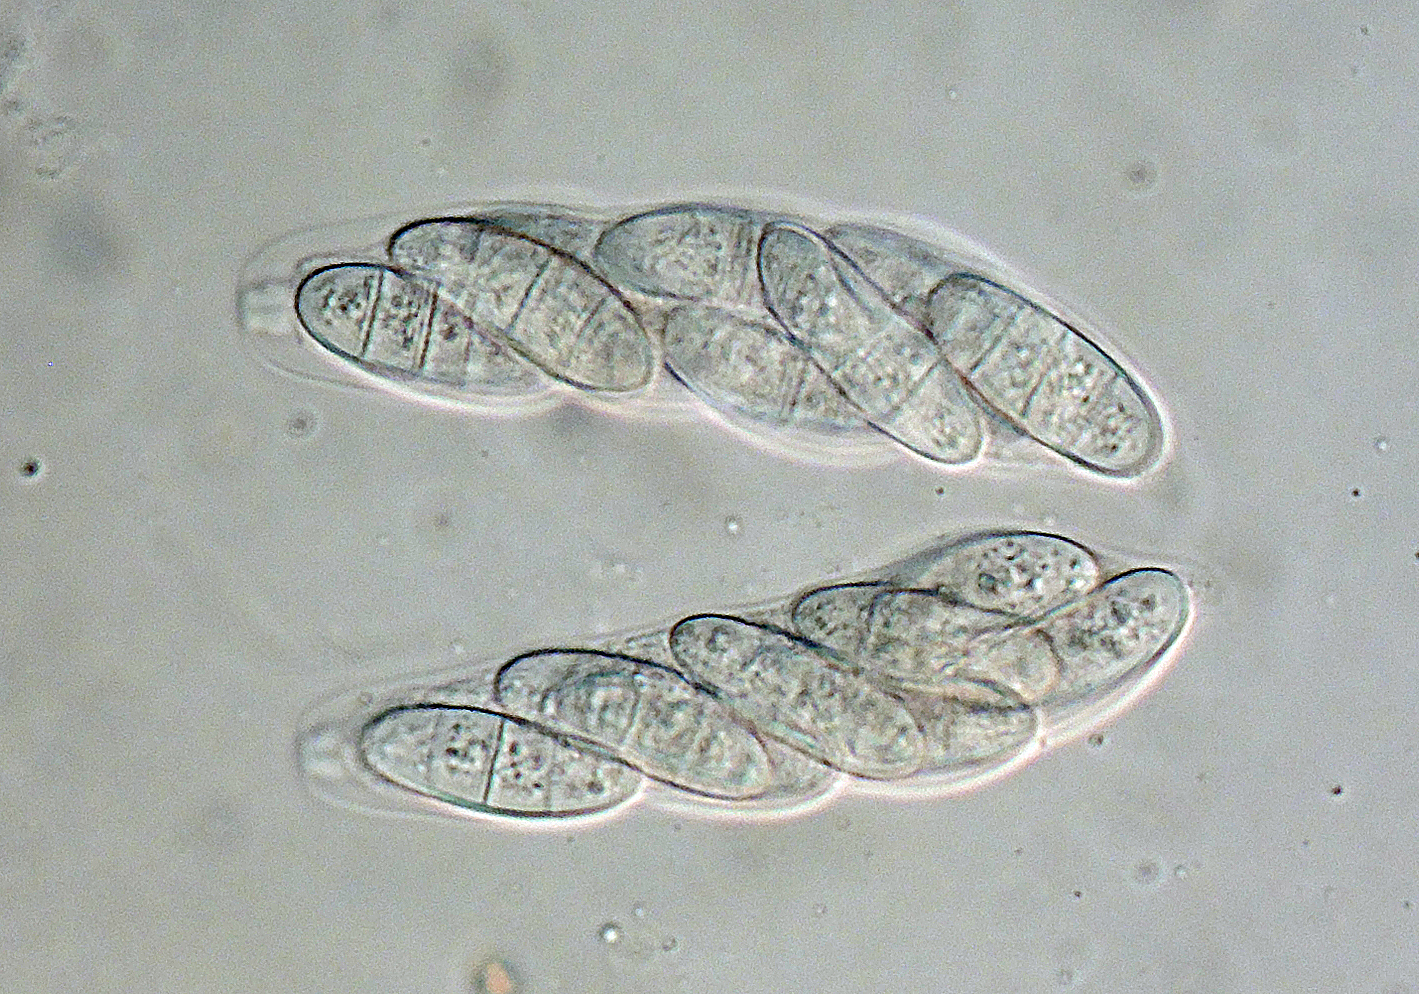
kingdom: Fungi
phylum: Ascomycota
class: Sordariomycetes
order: Diaporthales
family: Gnomoniaceae
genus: Phragmoporthe
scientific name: Phragmoporthe conformis
